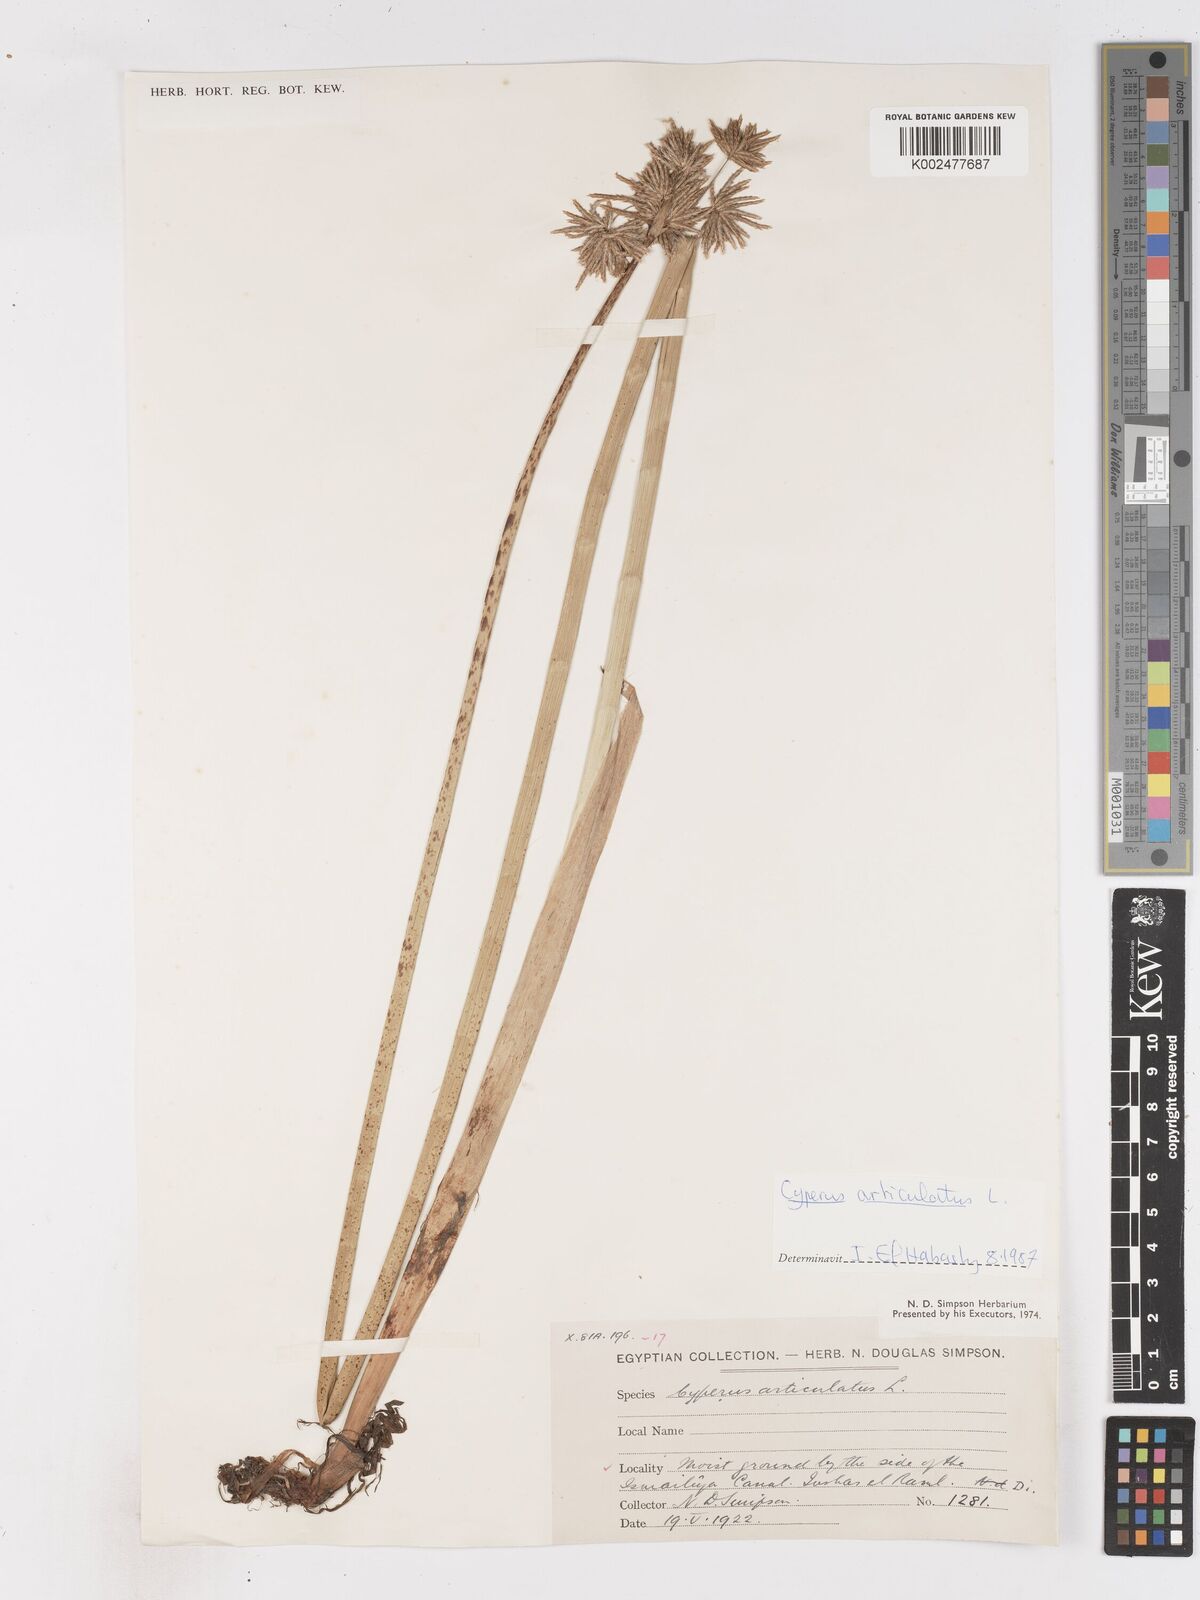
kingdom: Plantae
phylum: Tracheophyta
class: Liliopsida
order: Poales
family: Cyperaceae
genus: Cyperus
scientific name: Cyperus articulatus
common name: Jointed flatsedge
